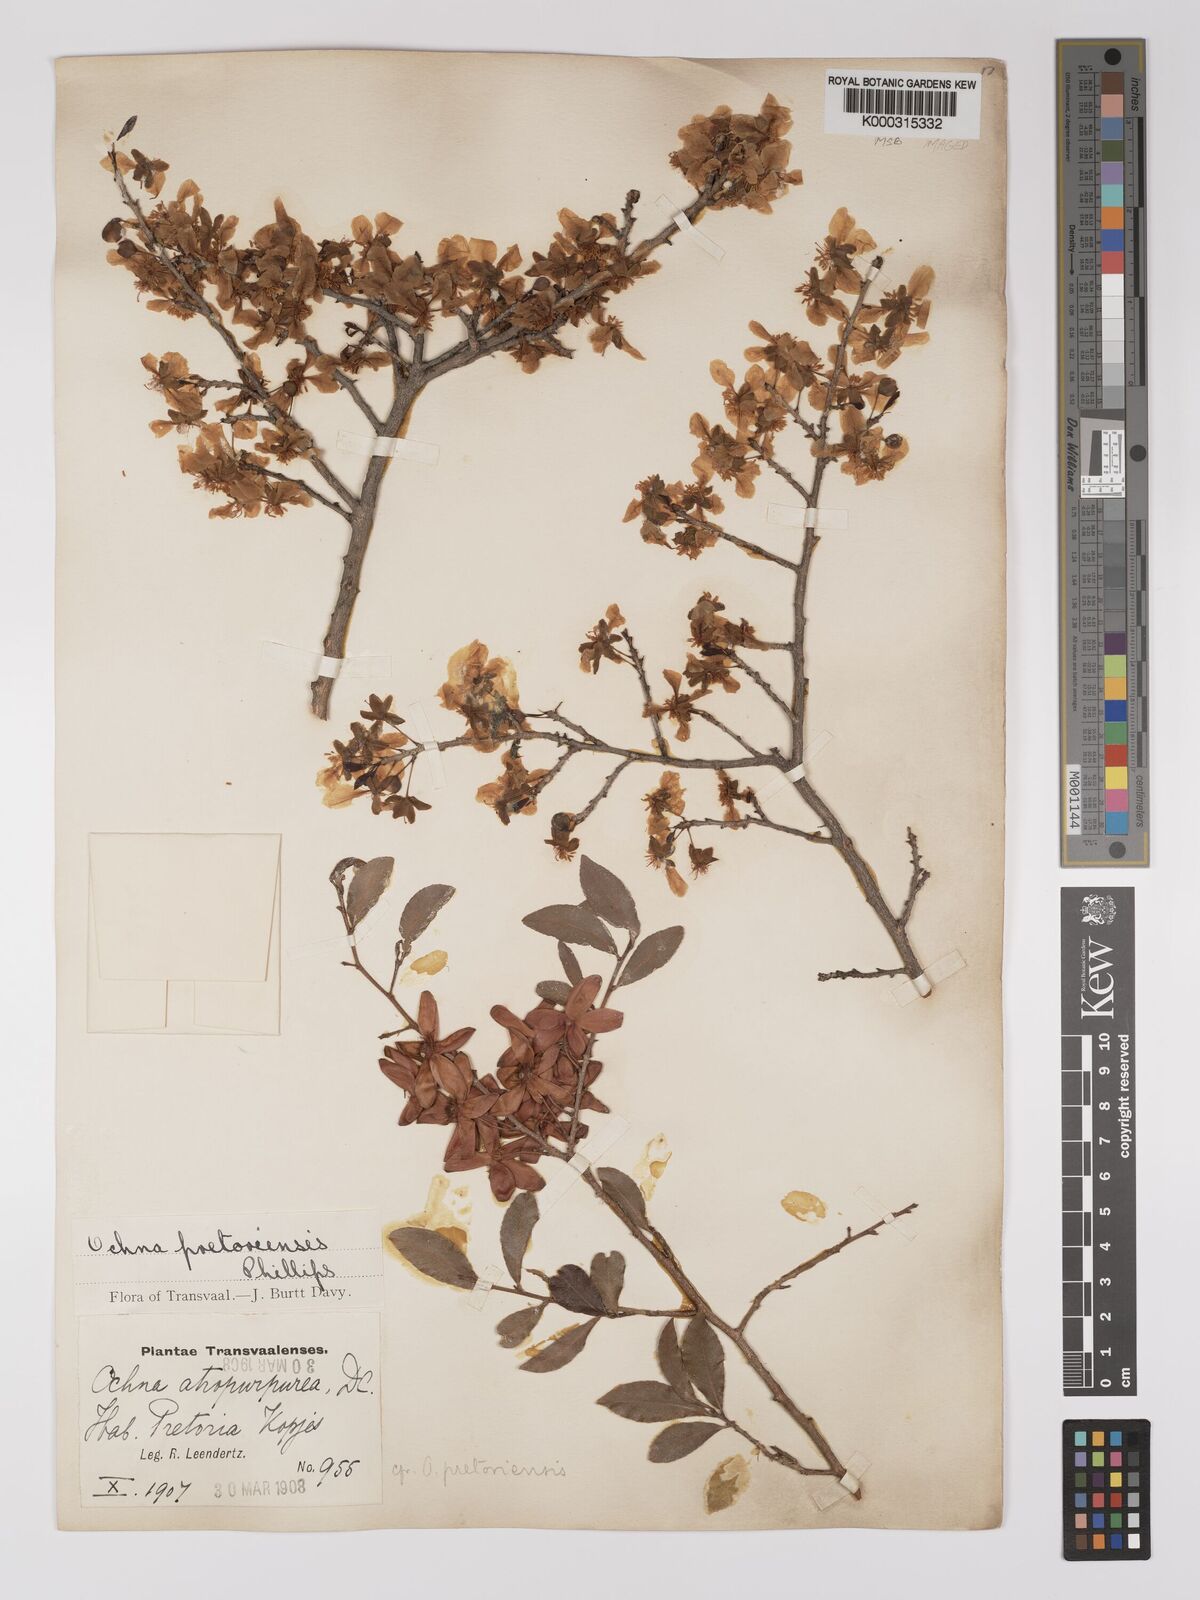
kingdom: Plantae
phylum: Tracheophyta
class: Magnoliopsida
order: Malpighiales
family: Ochnaceae
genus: Ochna
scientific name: Ochna pretoriensis
